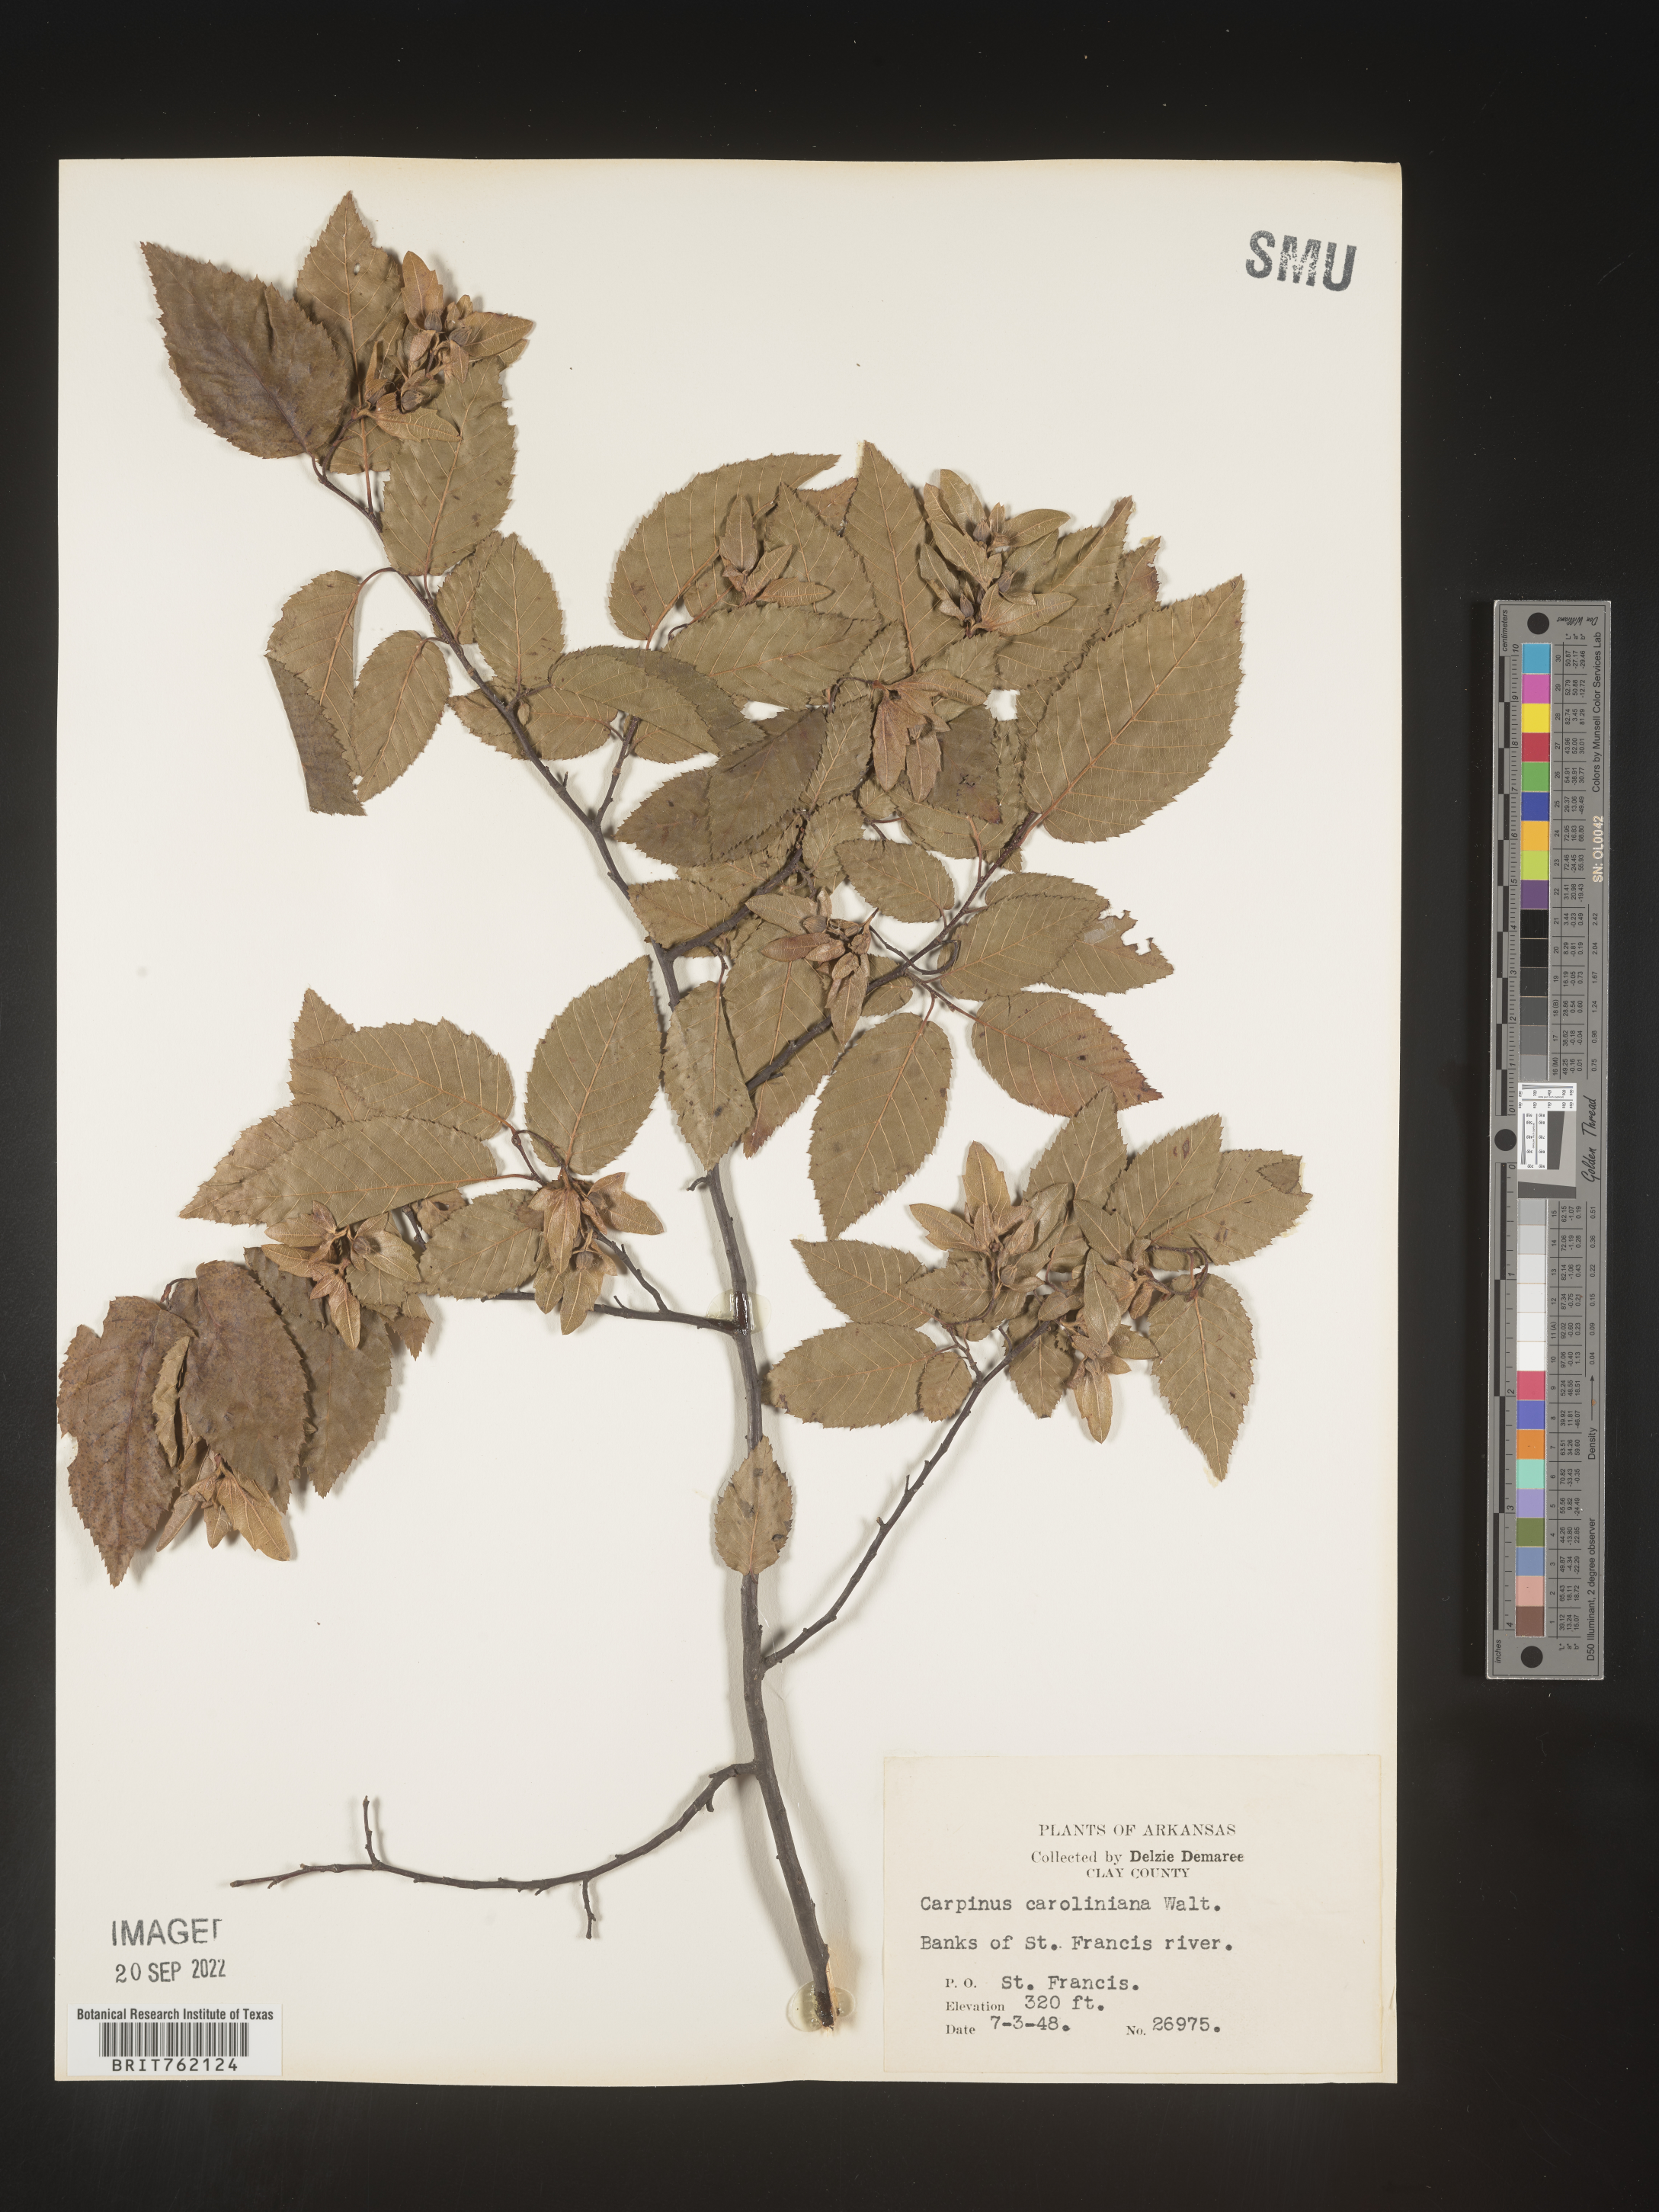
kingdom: Plantae
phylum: Tracheophyta
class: Magnoliopsida
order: Fagales
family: Betulaceae
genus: Carpinus
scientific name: Carpinus caroliniana
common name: American hornbeam
